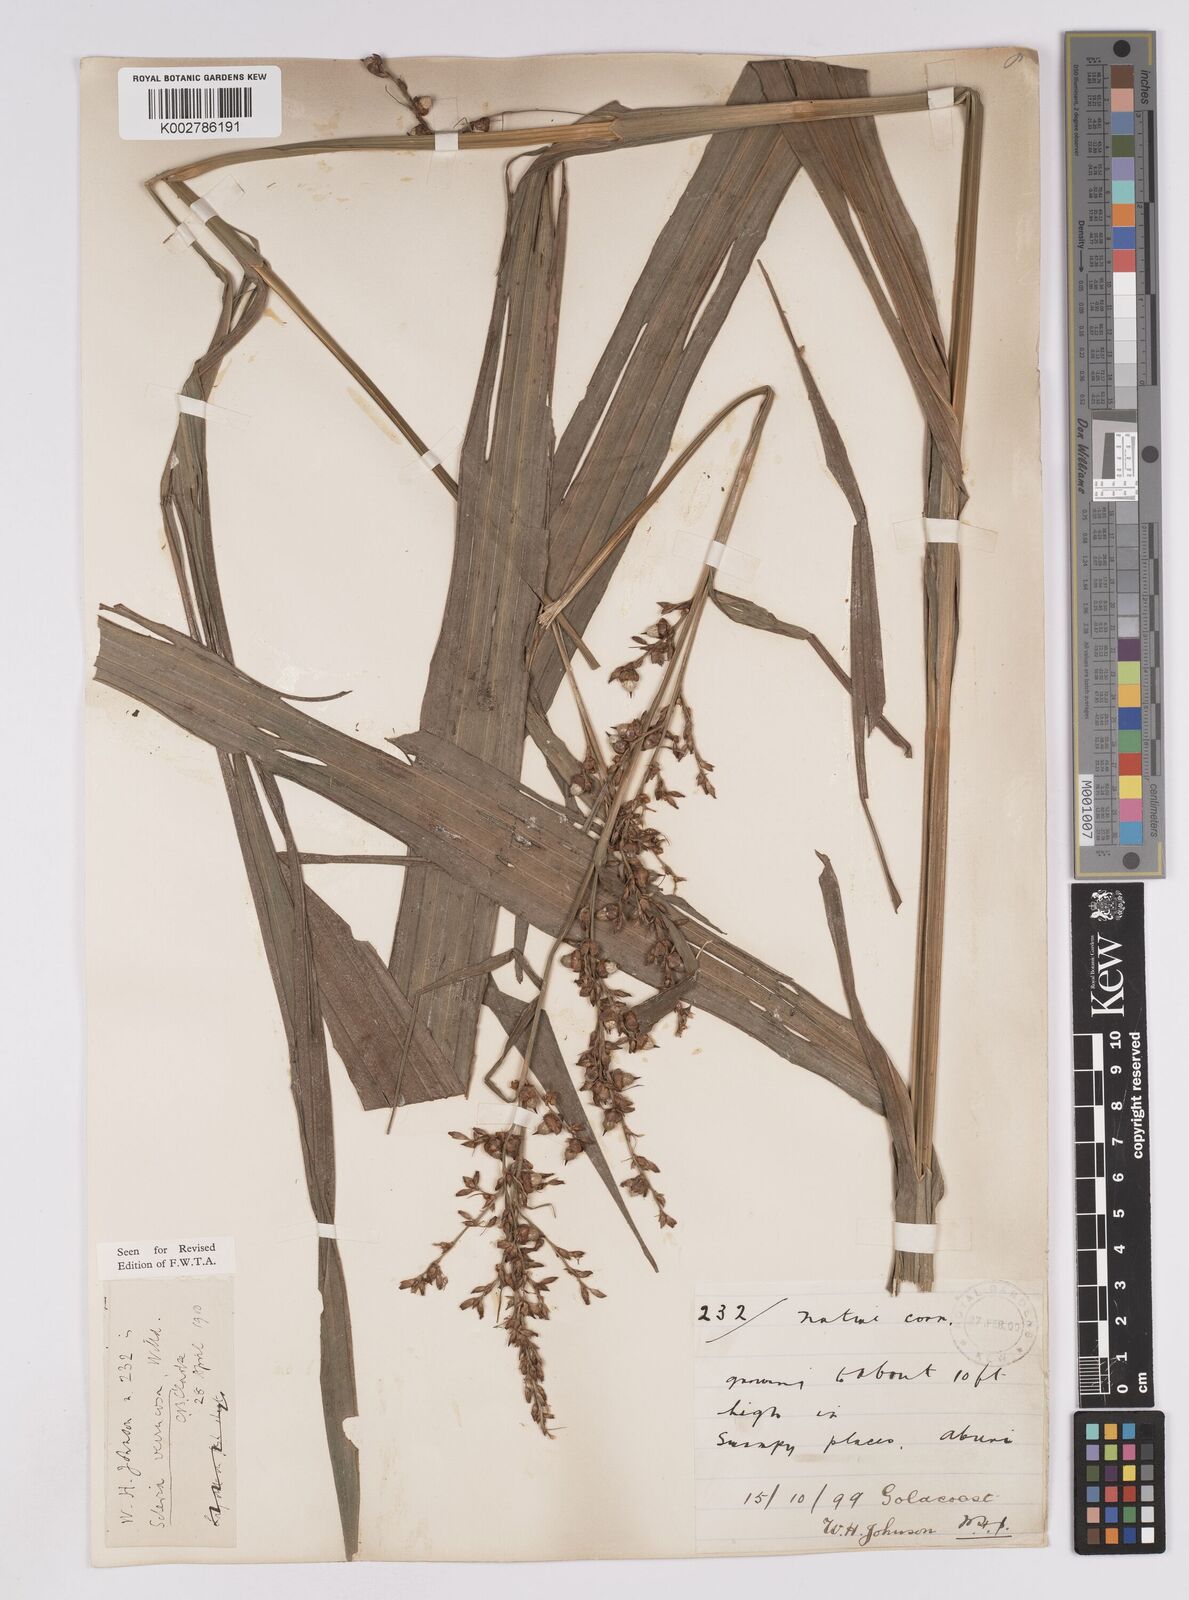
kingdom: Plantae
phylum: Tracheophyta
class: Liliopsida
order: Poales
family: Cyperaceae
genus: Scleria
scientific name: Scleria verrucosa
